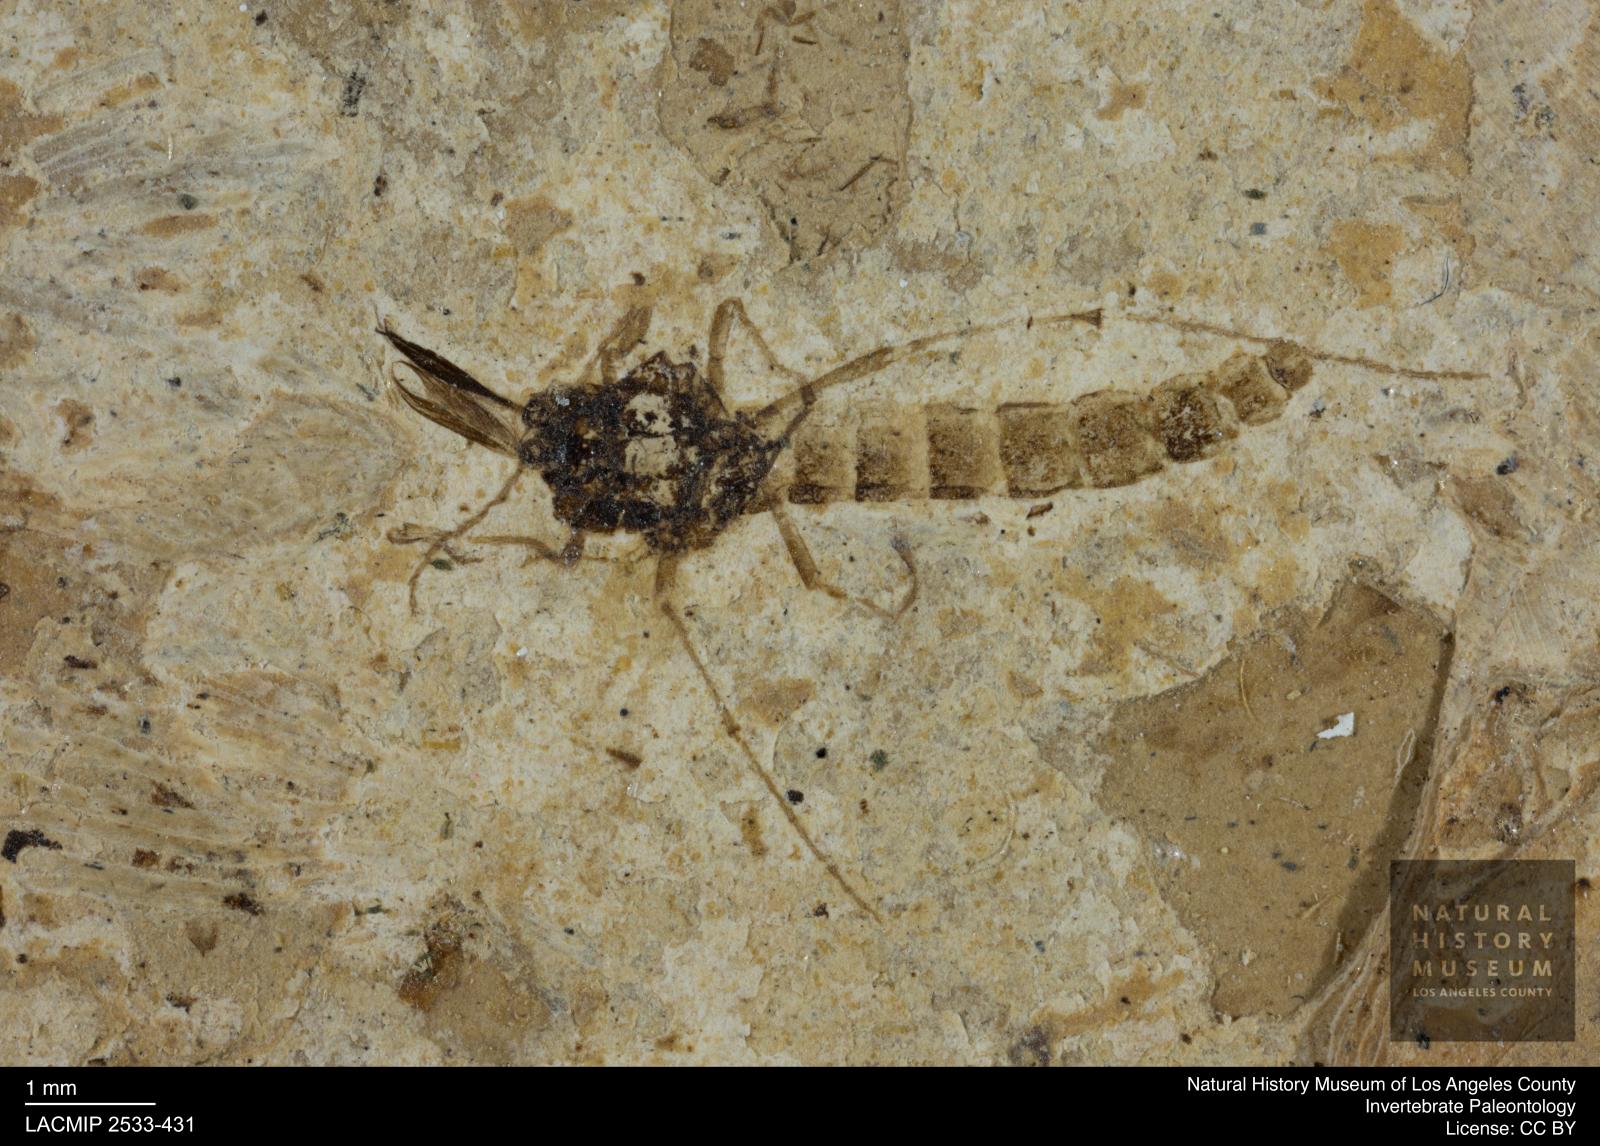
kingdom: Animalia
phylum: Arthropoda
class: Insecta
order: Diptera
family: Chironomidae
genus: Tanypus
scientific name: Tanypus thienemanni
